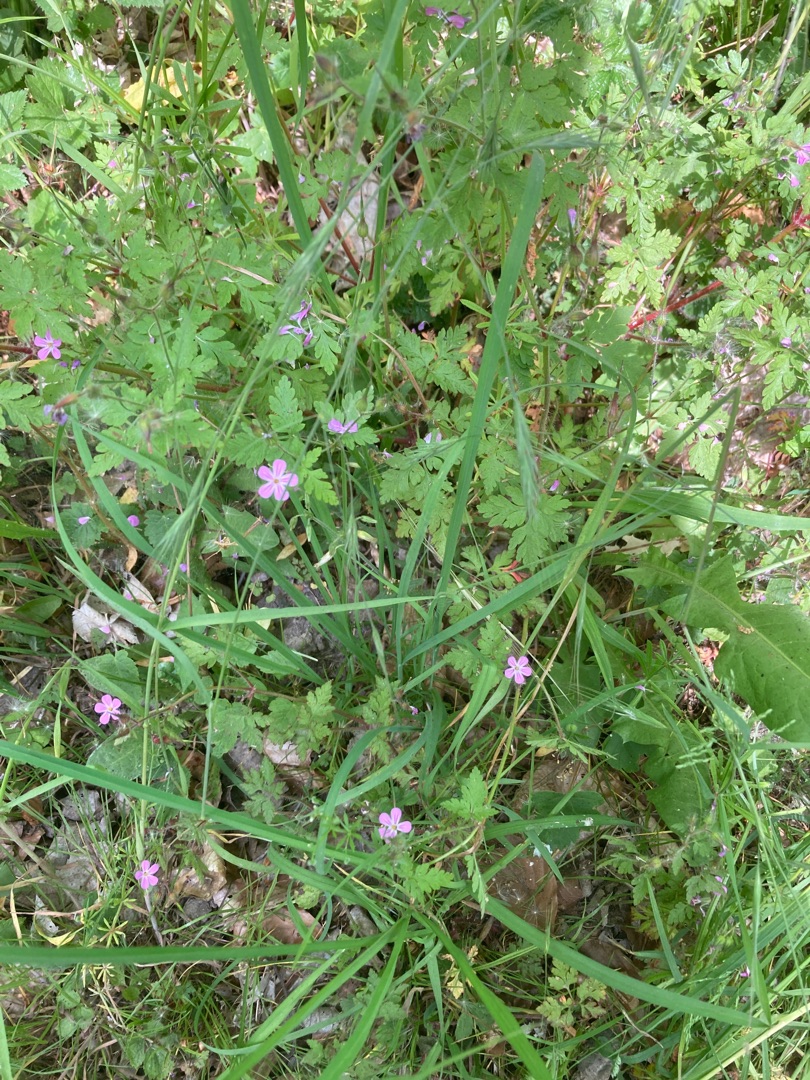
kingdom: Plantae
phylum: Tracheophyta
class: Magnoliopsida
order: Geraniales
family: Geraniaceae
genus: Geranium
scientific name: Geranium robertianum
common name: Stinkende storkenæb
